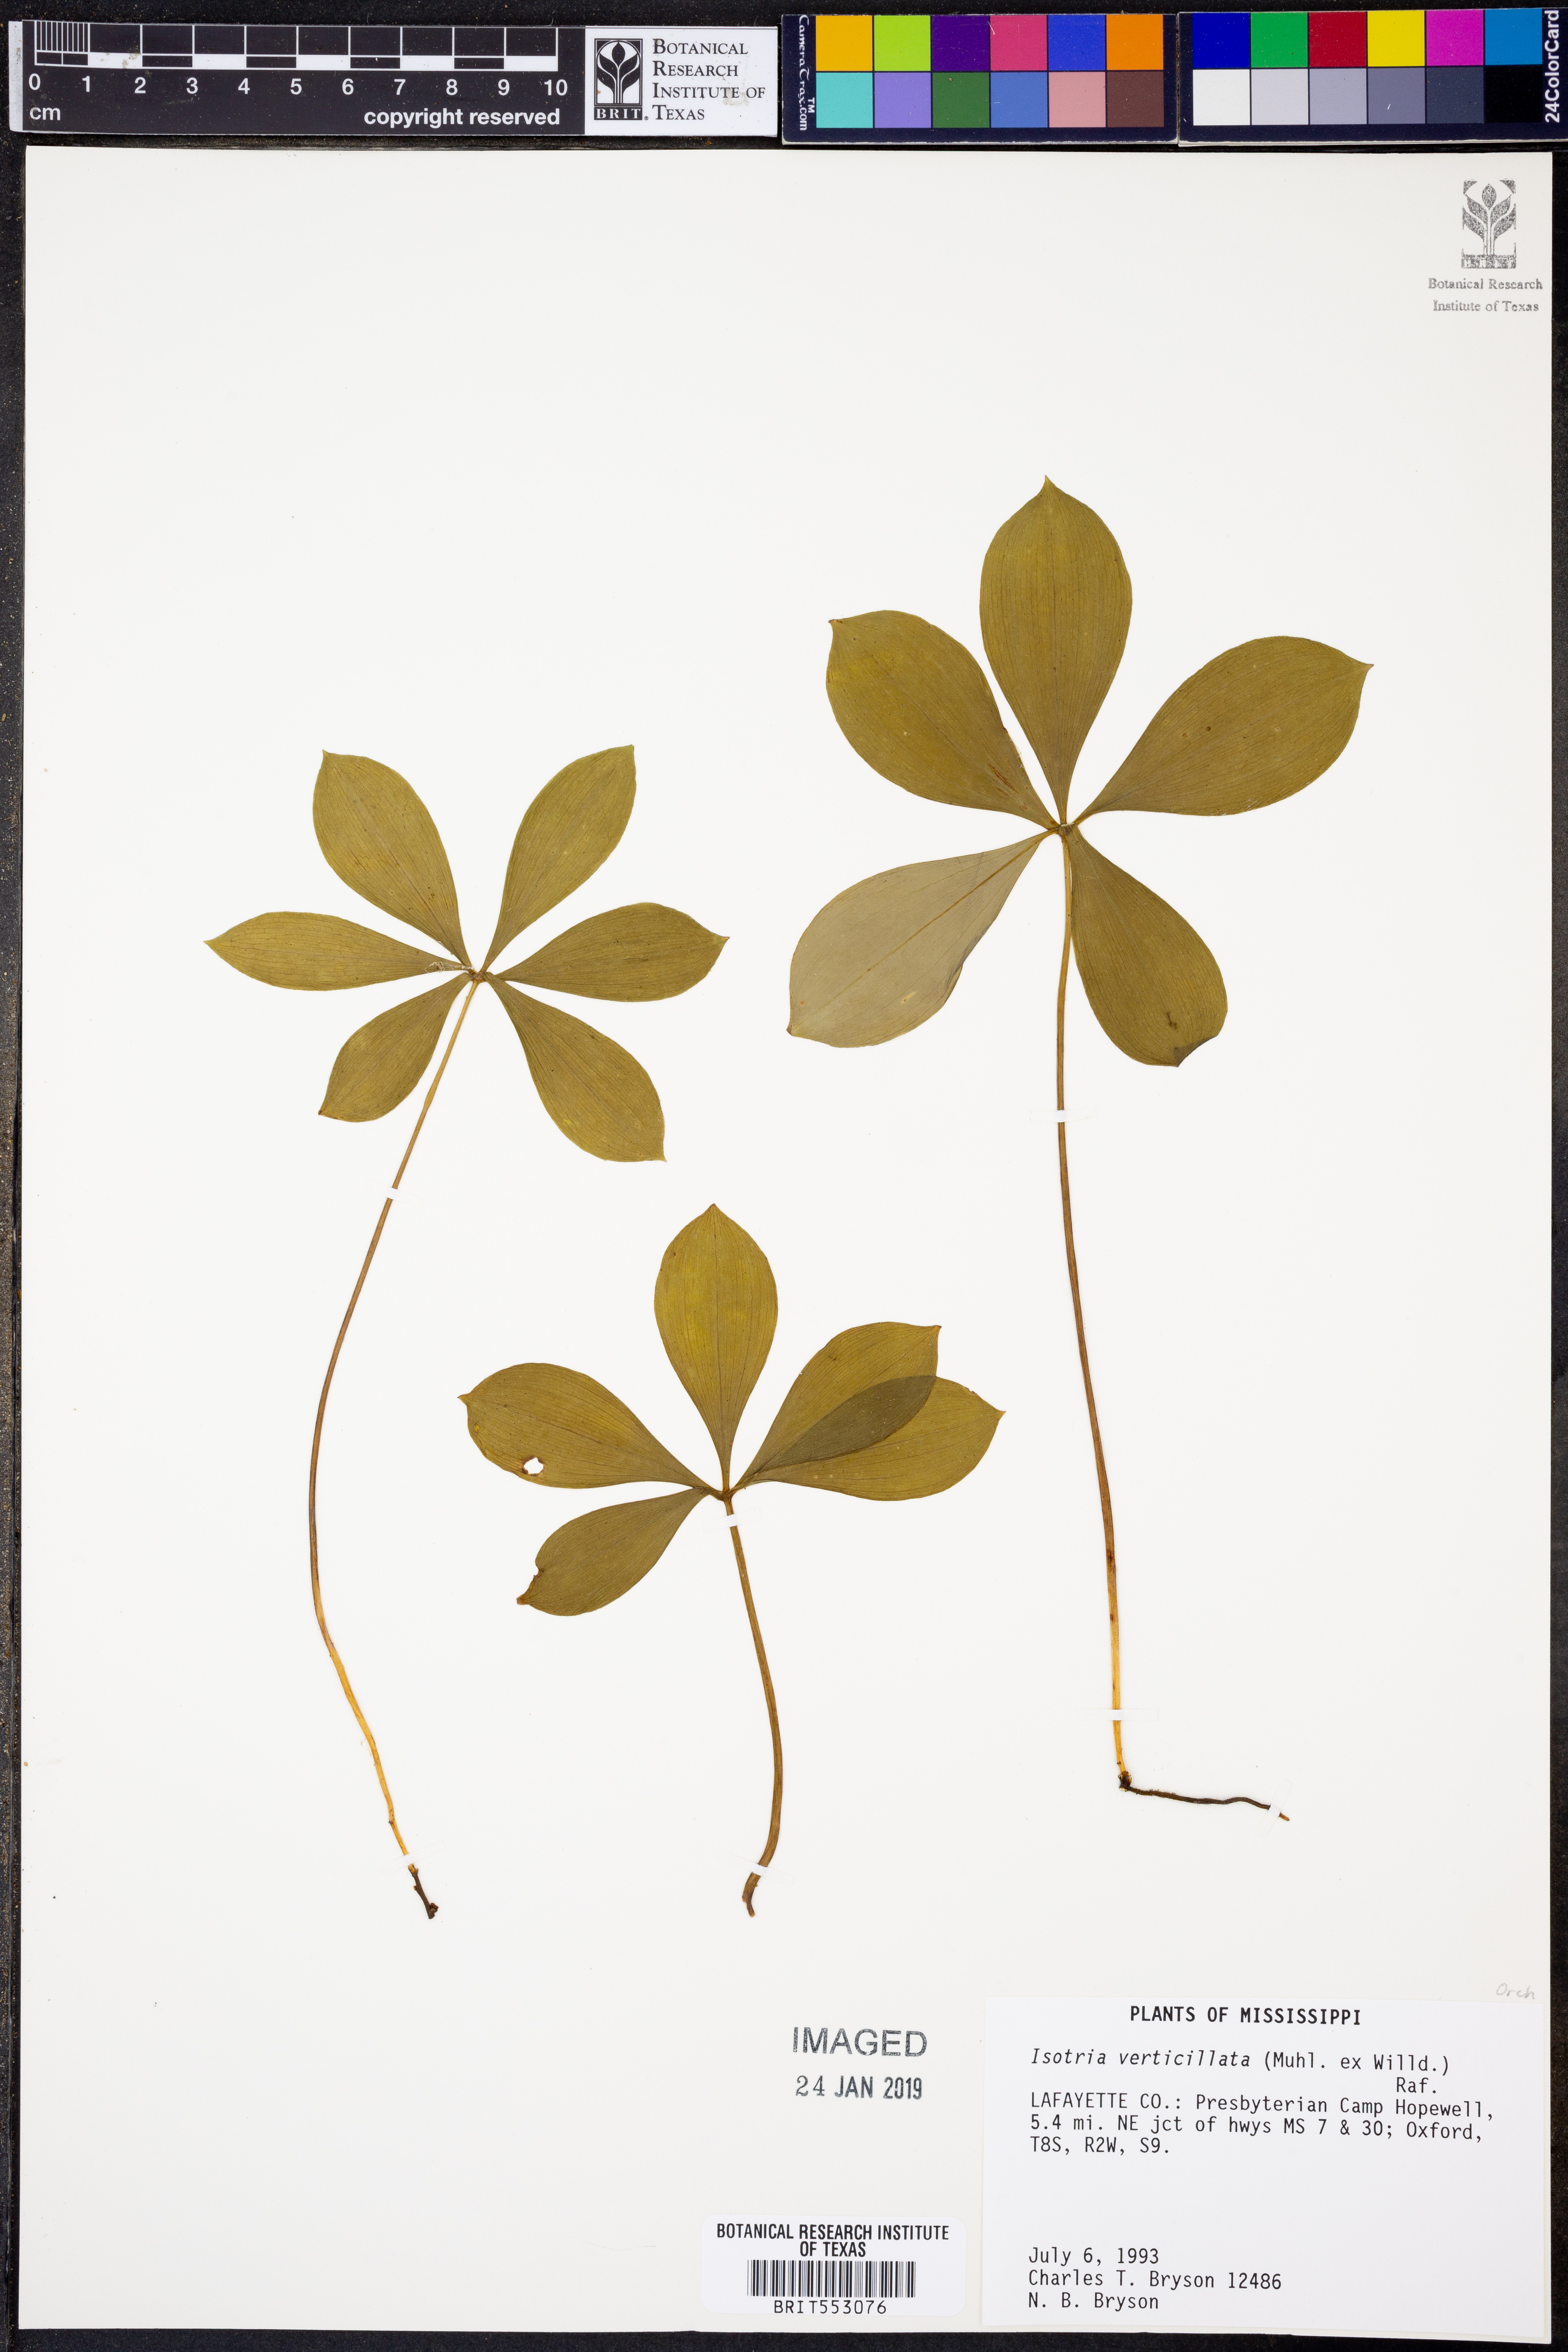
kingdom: Plantae
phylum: Tracheophyta
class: Liliopsida
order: Asparagales
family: Orchidaceae
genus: Isotria
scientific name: Isotria verticillata
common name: Large whorled pogonia
